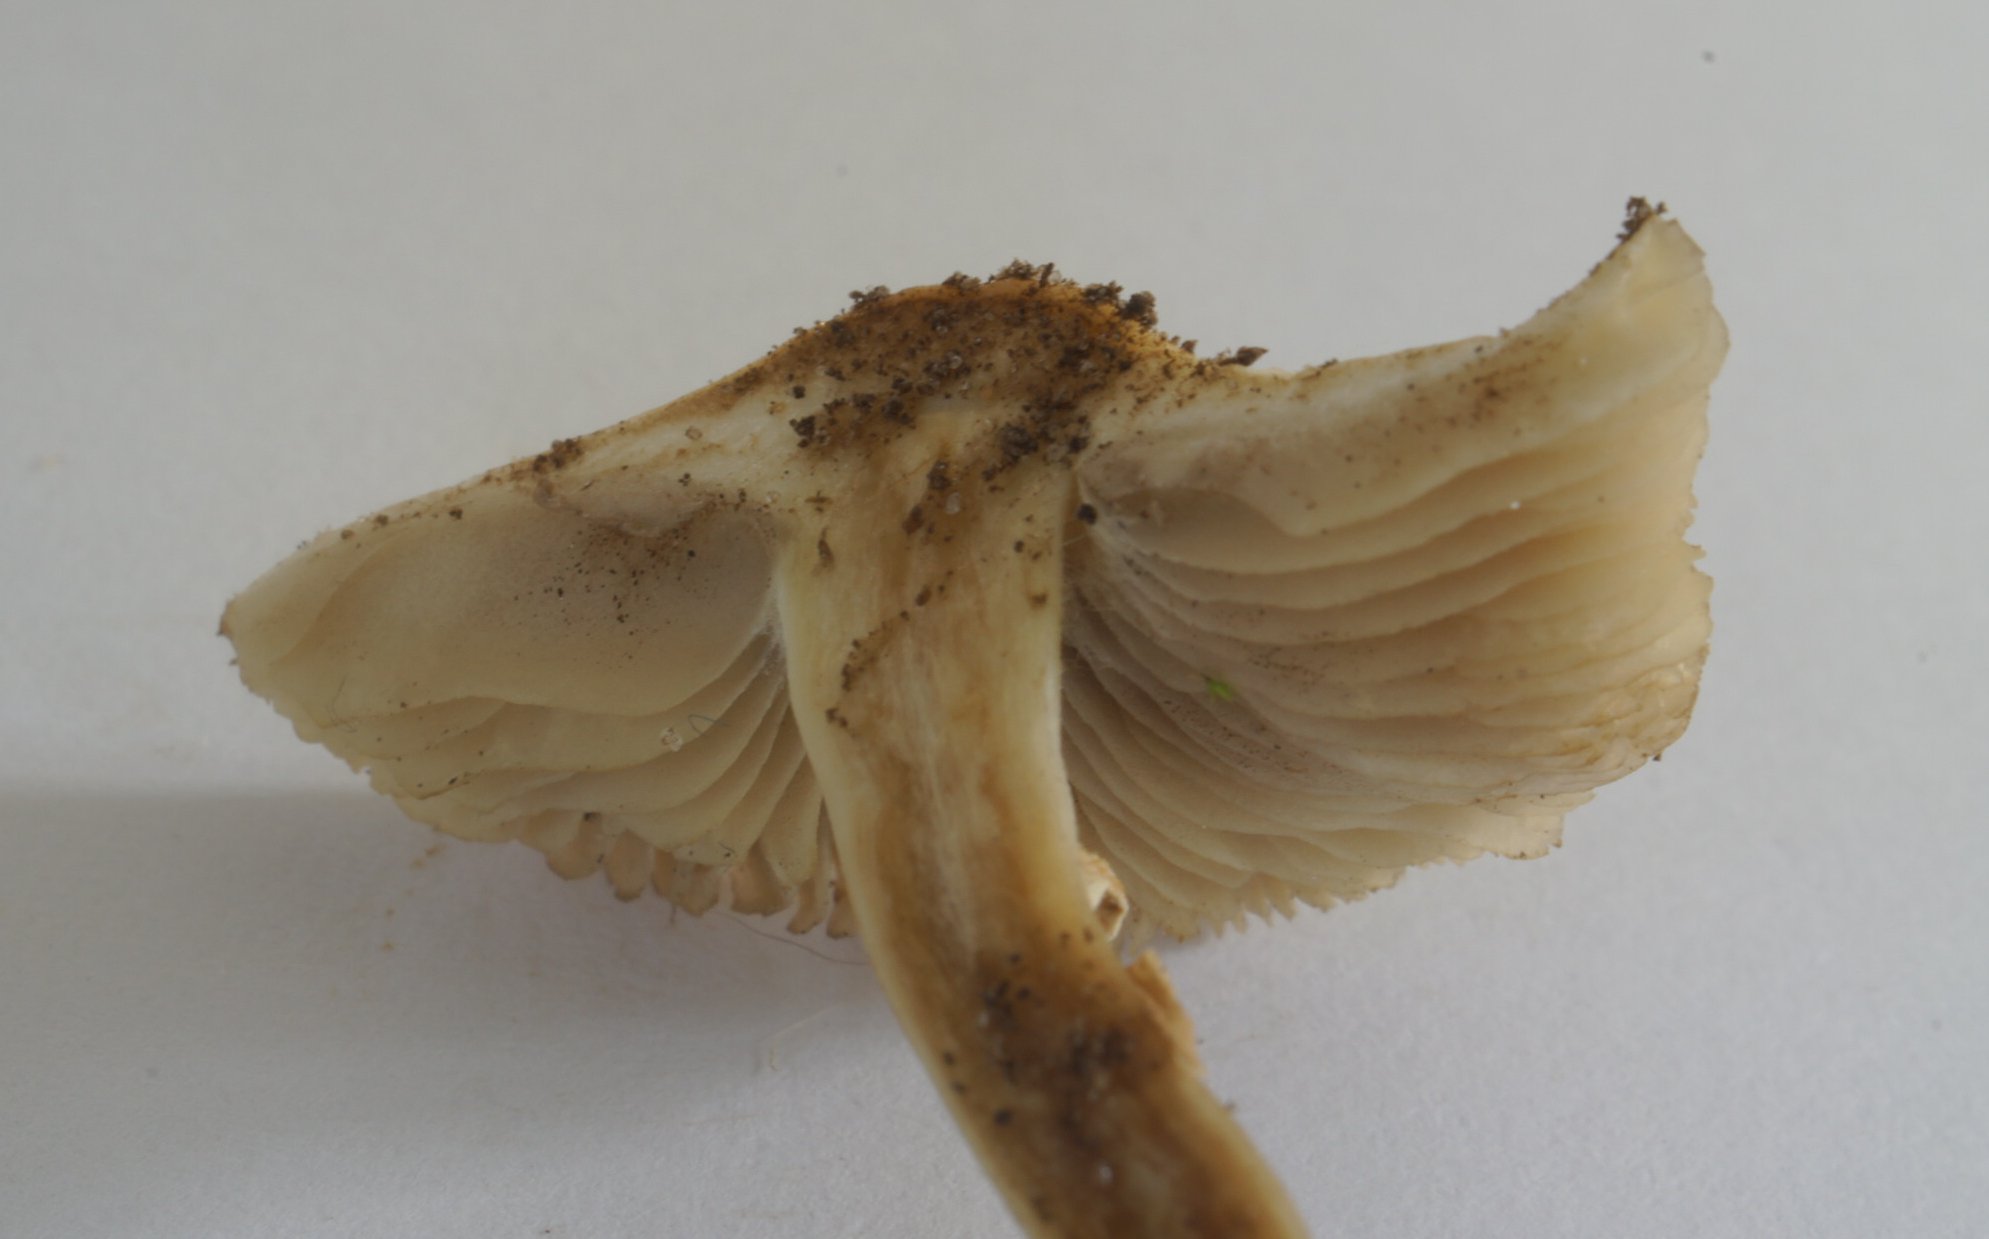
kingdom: Fungi
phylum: Basidiomycota
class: Agaricomycetes
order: Agaricales
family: Strophariaceae
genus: Agrocybe
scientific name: Agrocybe praecox
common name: tidlig agerhat
